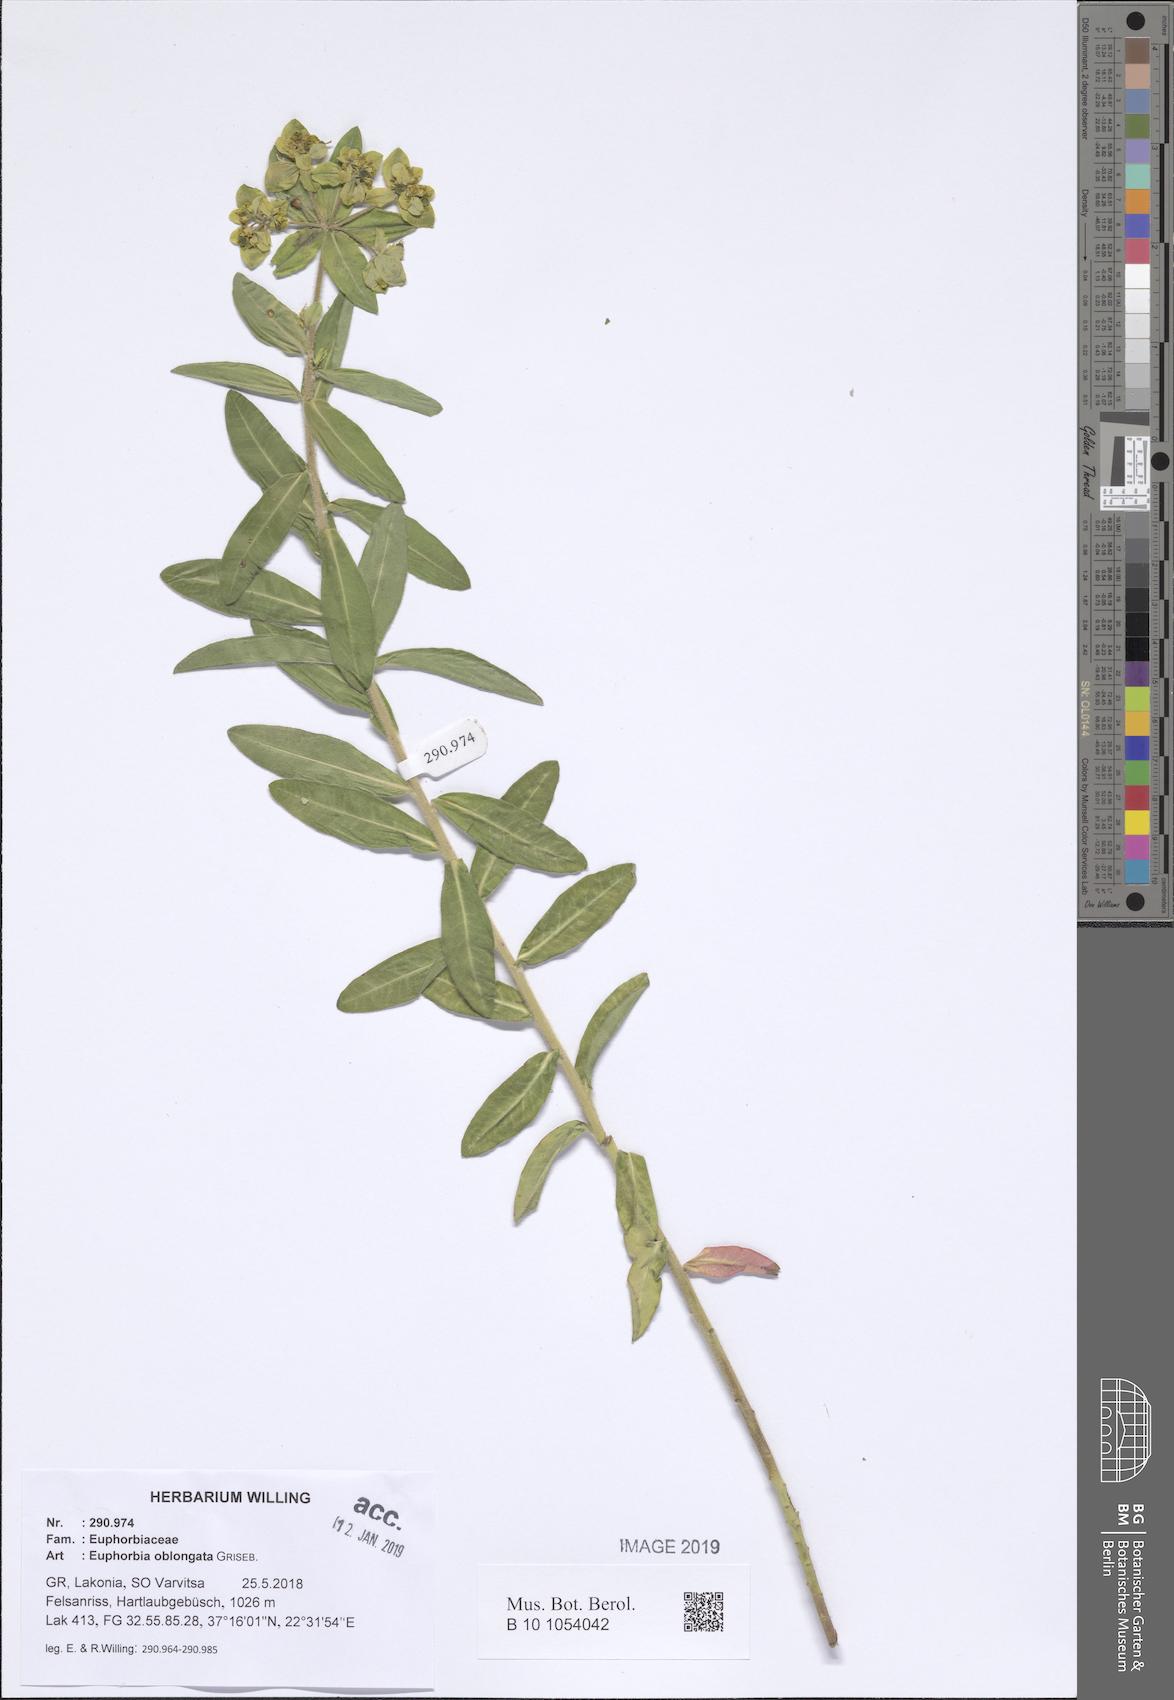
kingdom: Plantae
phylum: Tracheophyta
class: Magnoliopsida
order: Malpighiales
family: Euphorbiaceae
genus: Euphorbia
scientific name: Euphorbia oblongata
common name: Balkan spurge
